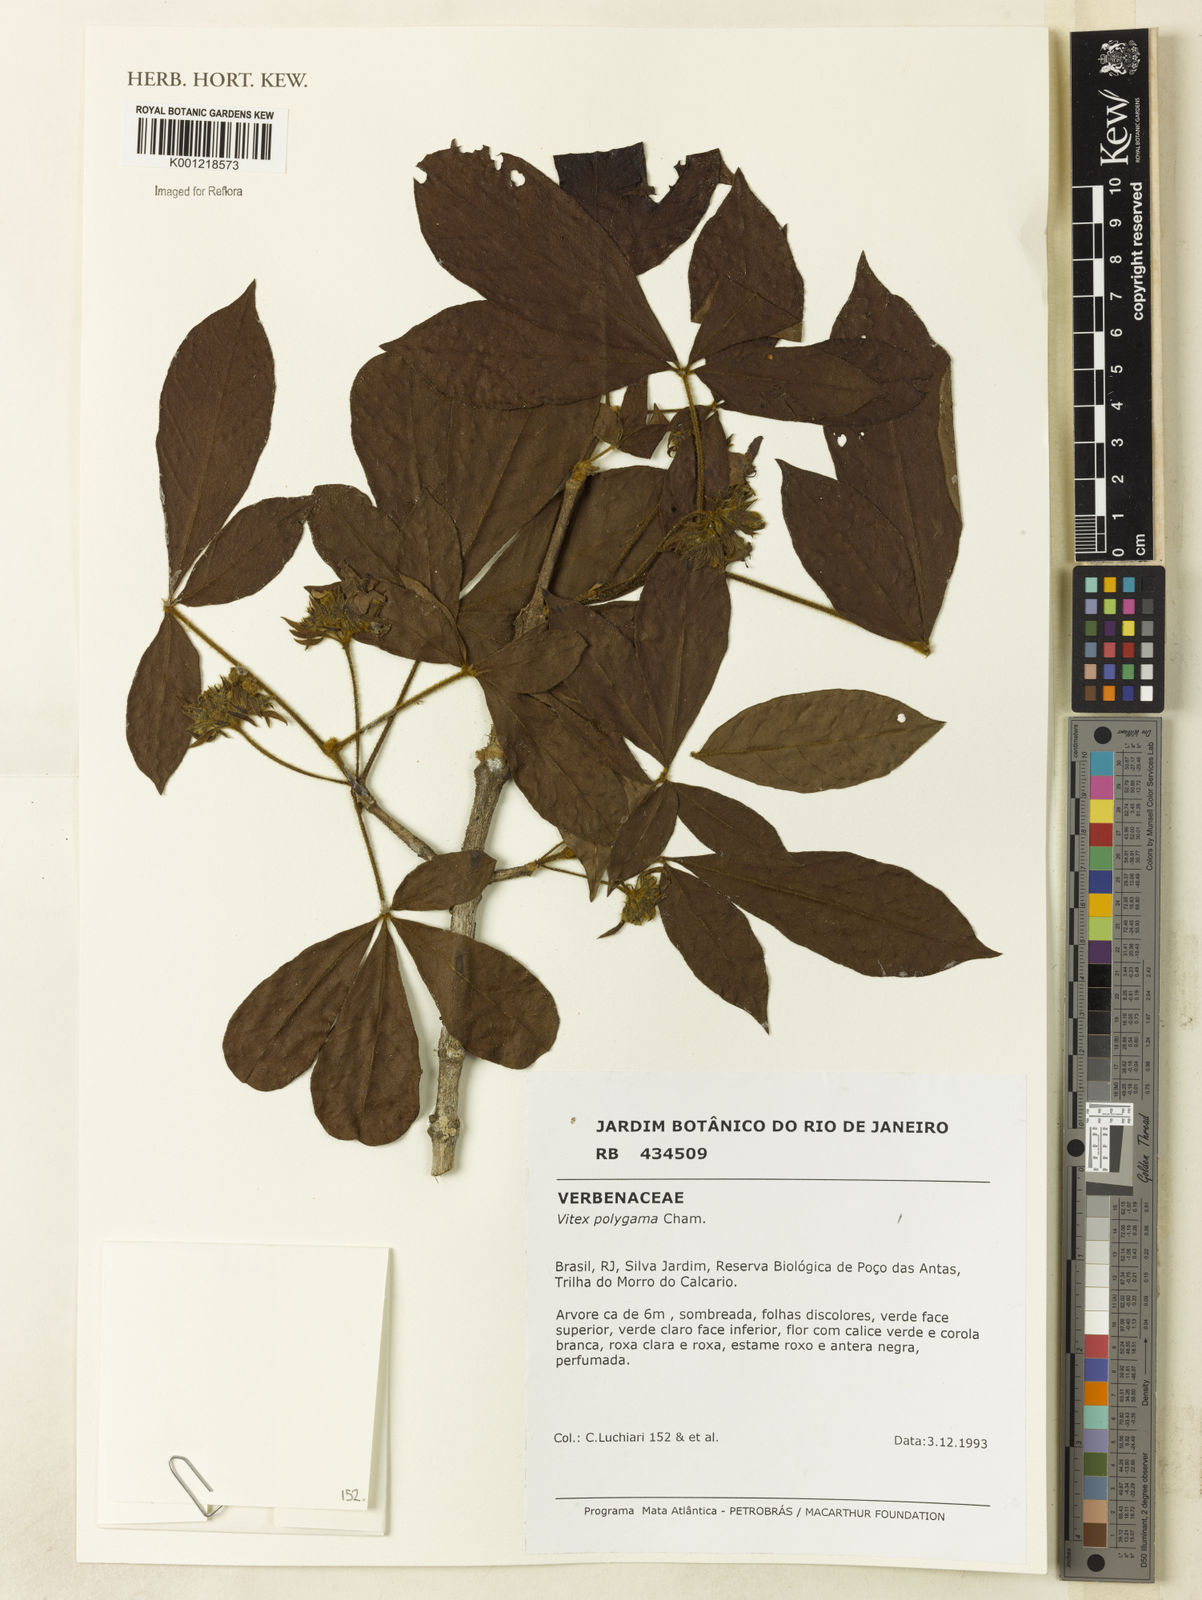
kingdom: Plantae
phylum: Tracheophyta
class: Magnoliopsida
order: Malpighiales
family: Salicaceae
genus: Casearia
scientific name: Casearia corymbulosa
